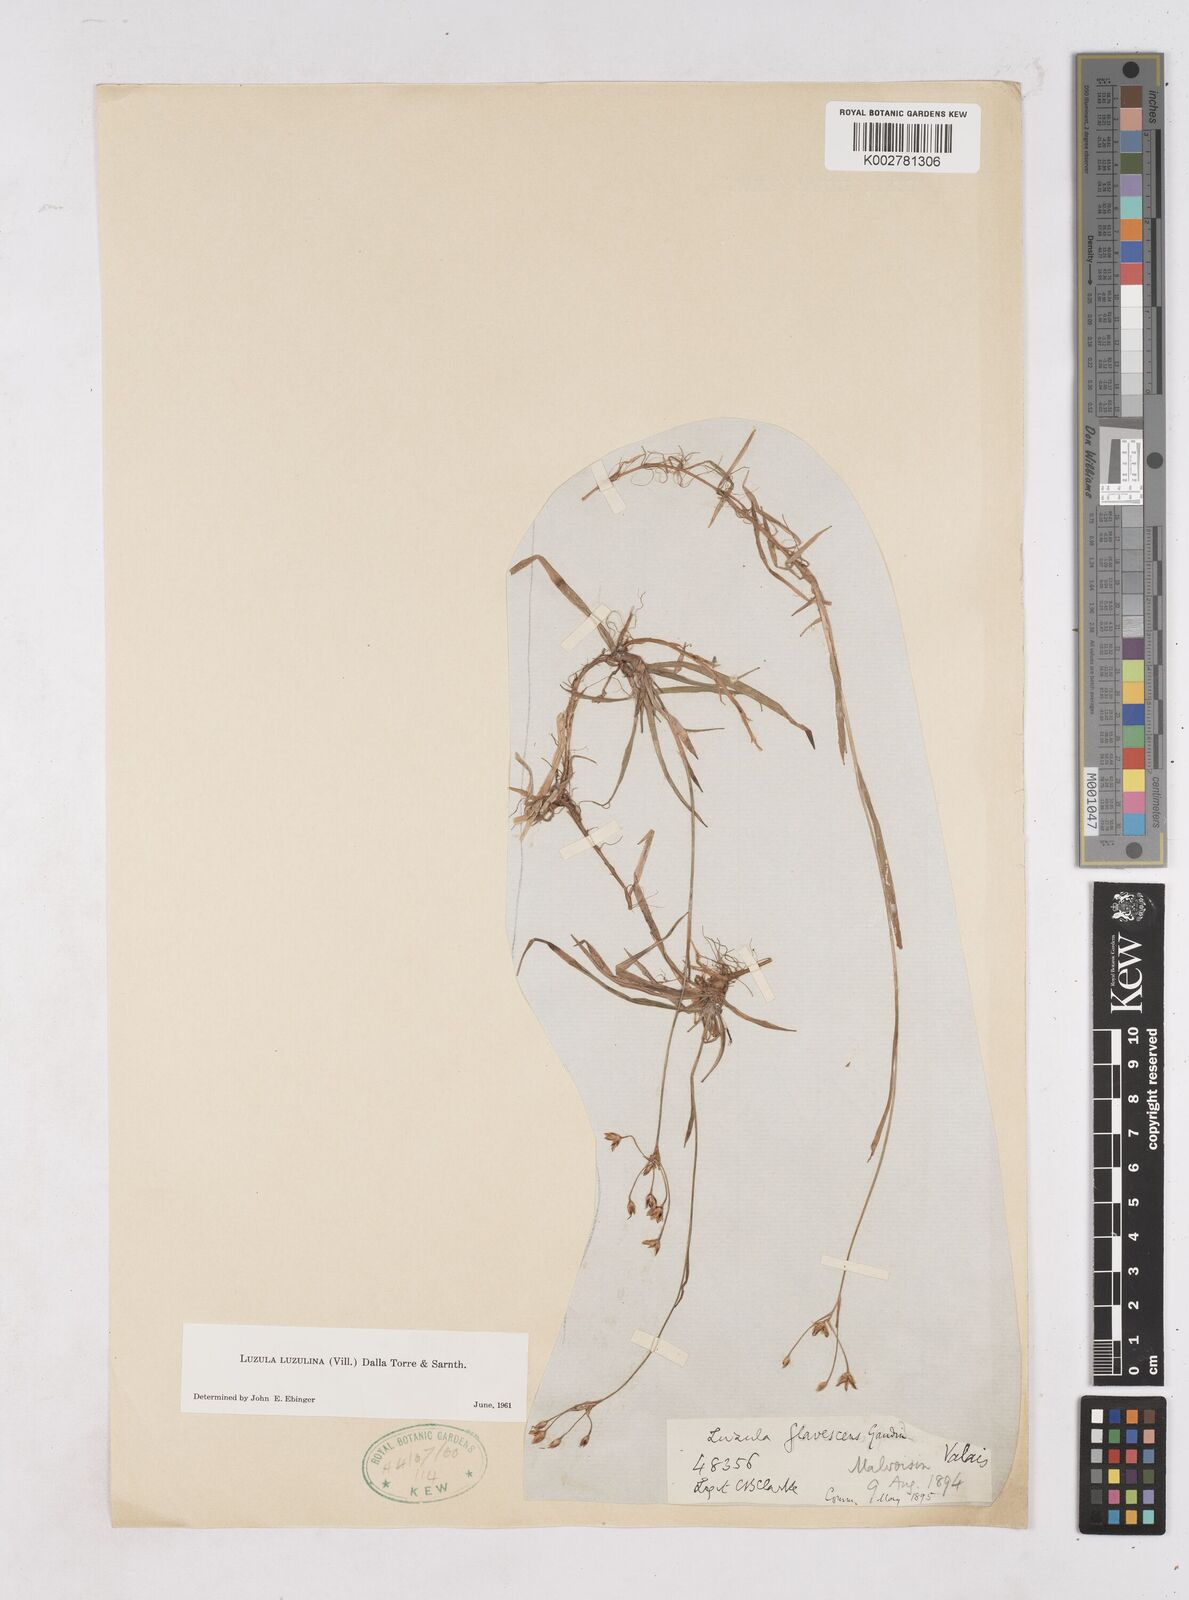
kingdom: Plantae
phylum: Tracheophyta
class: Liliopsida
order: Poales
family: Juncaceae
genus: Luzula
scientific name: Luzula luzulina
